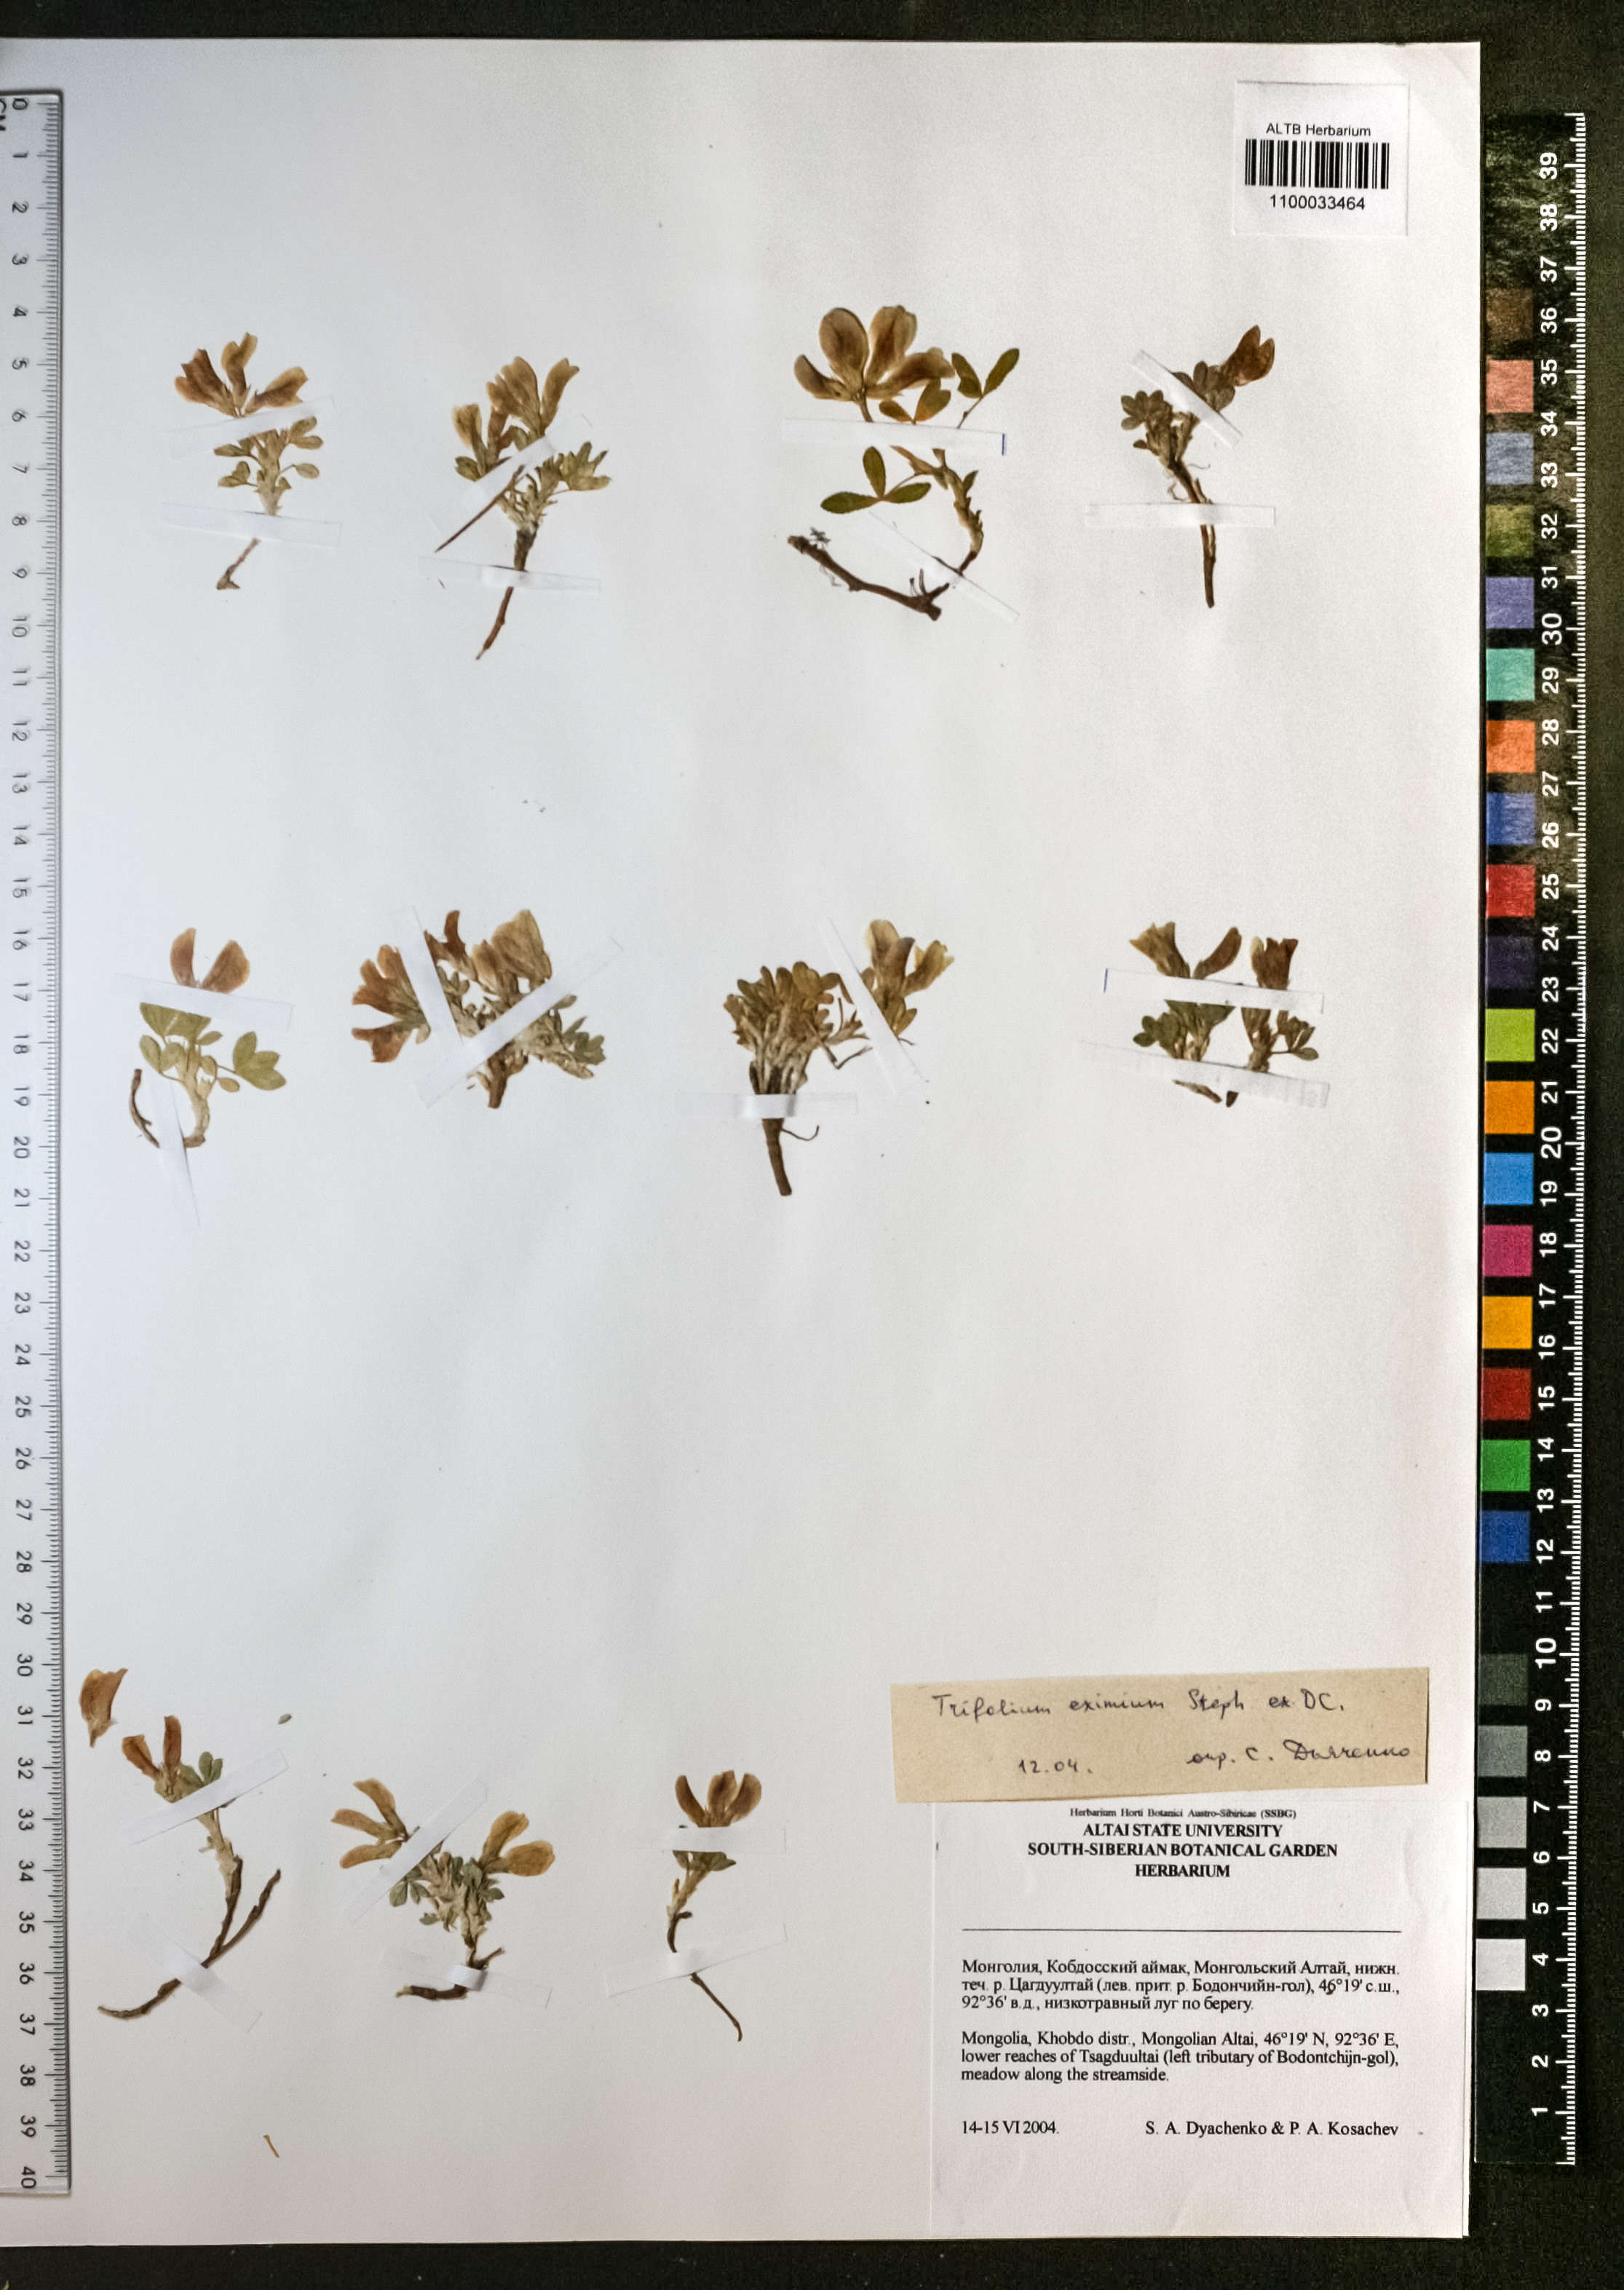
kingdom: Plantae
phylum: Tracheophyta
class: Magnoliopsida
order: Fabales
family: Fabaceae
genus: Trifolium
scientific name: Trifolium eximium
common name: Excellent clover
